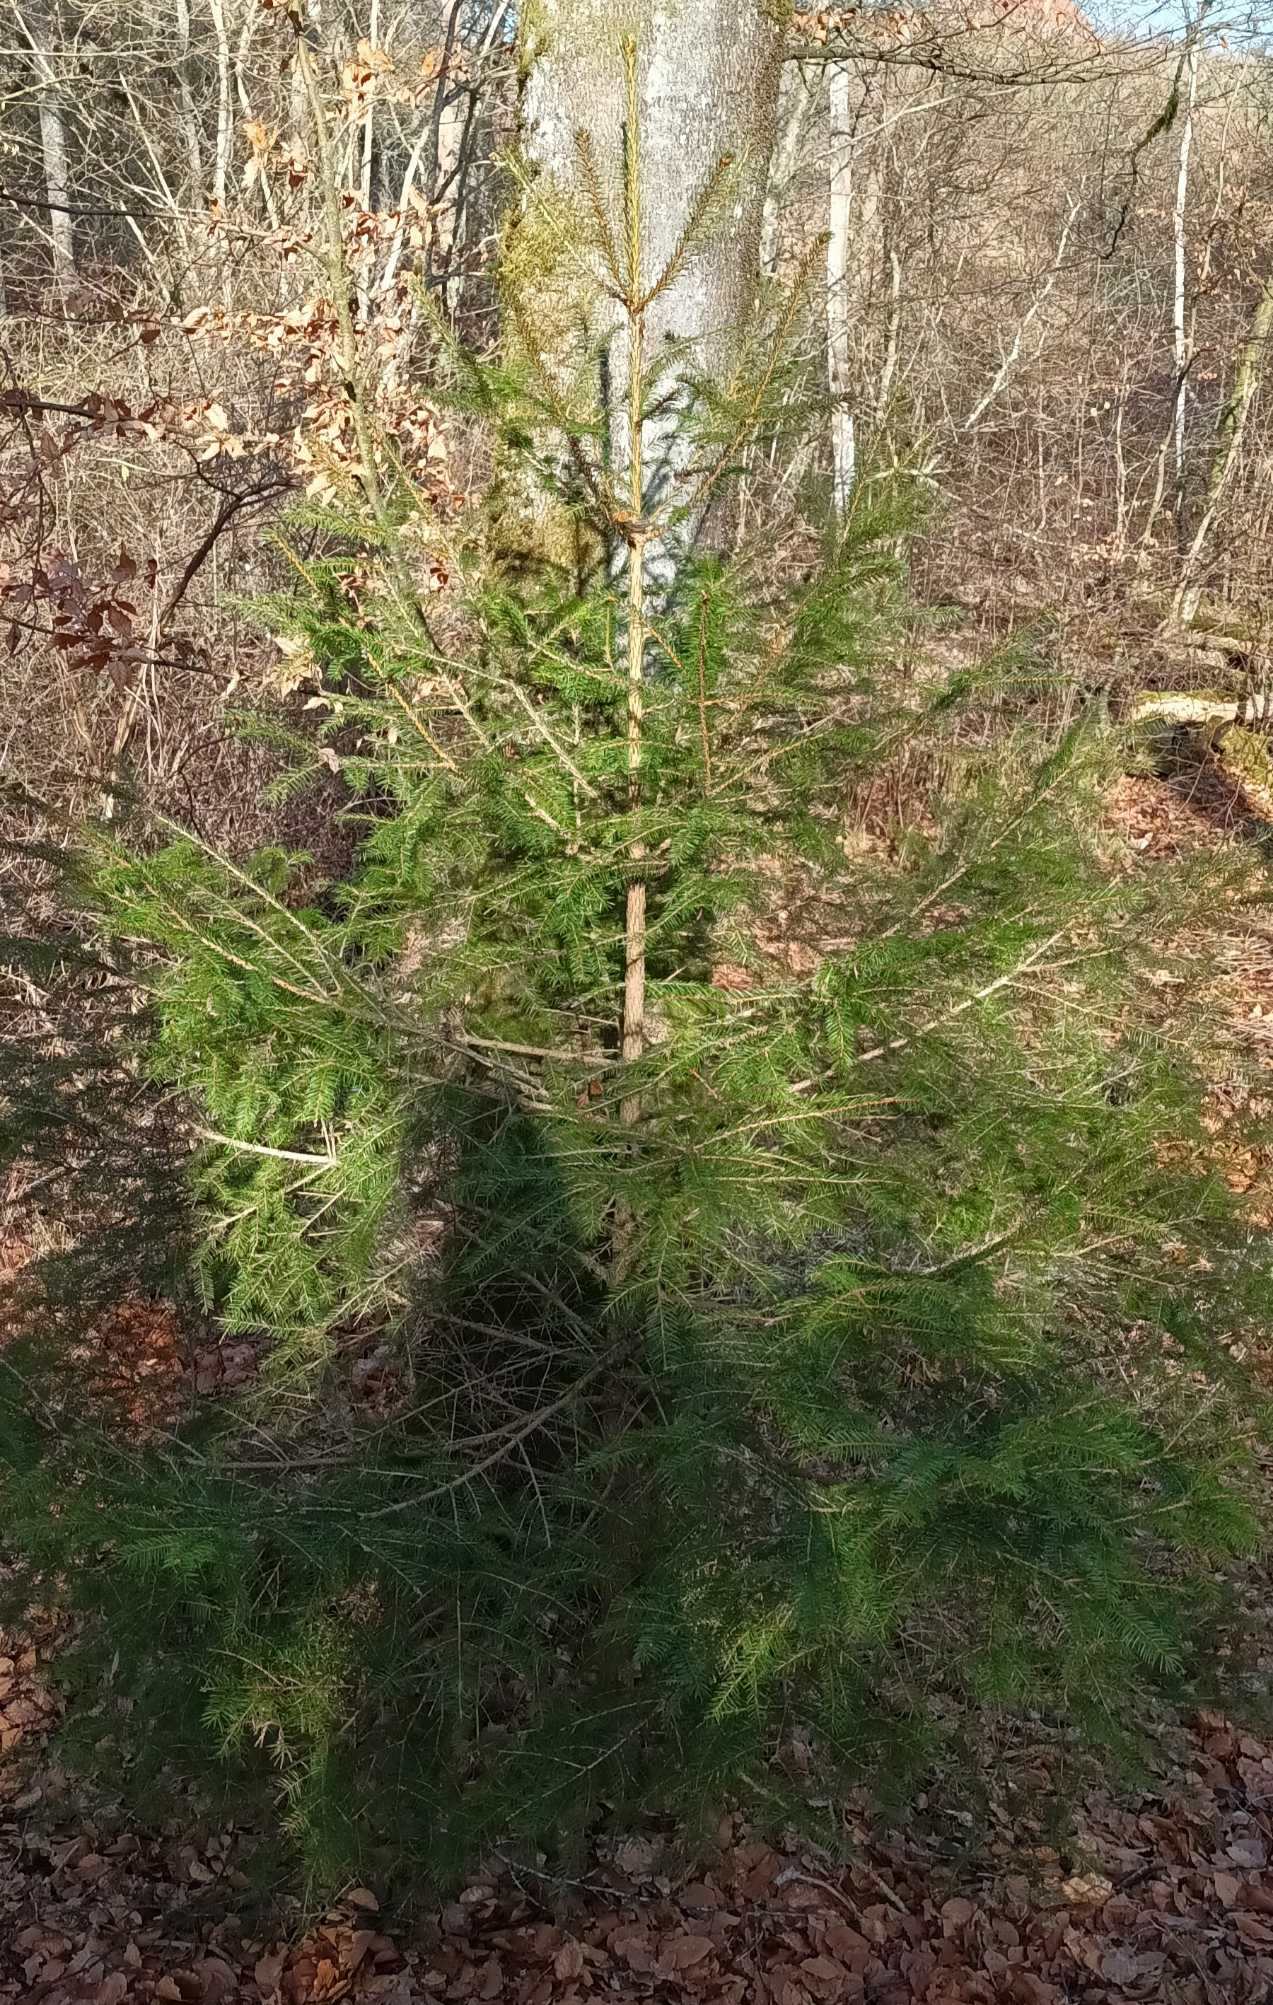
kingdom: Plantae
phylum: Tracheophyta
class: Pinopsida
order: Pinales
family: Pinaceae
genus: Picea
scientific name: Picea abies
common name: Rød-gran
